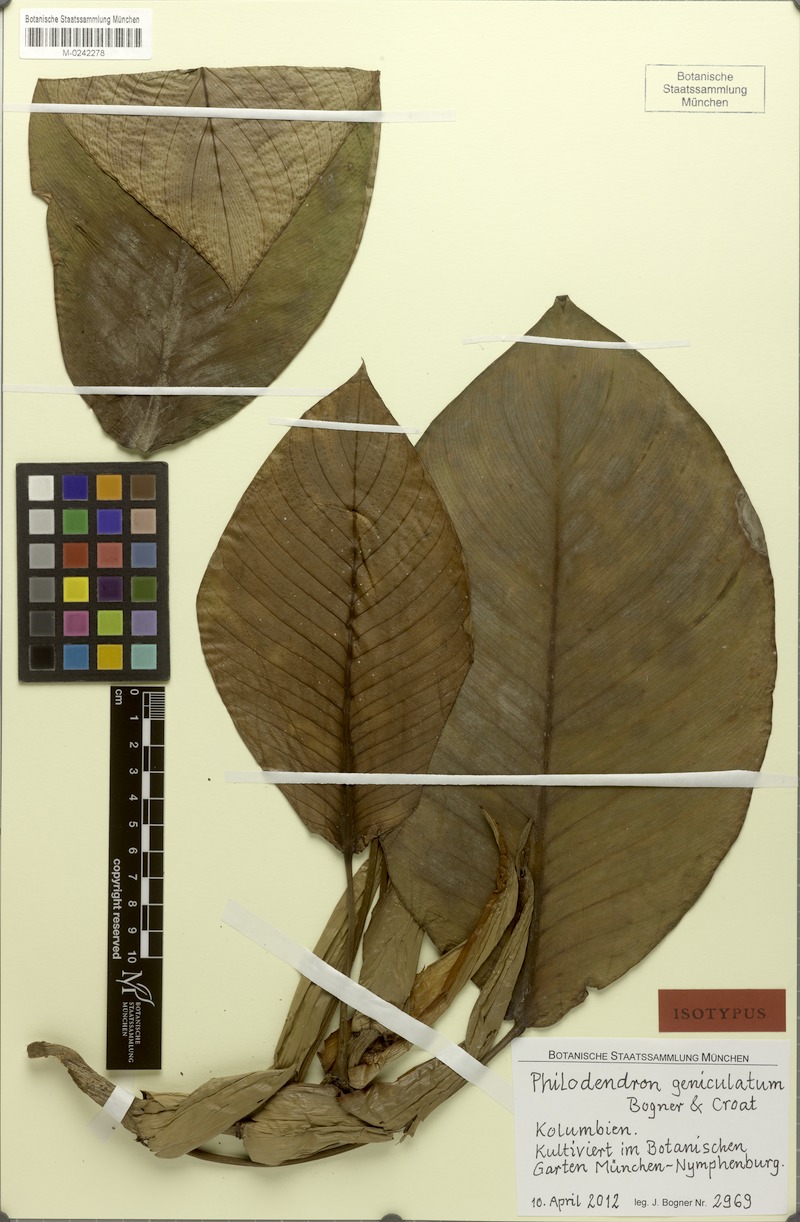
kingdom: Plantae
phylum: Tracheophyta
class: Liliopsida
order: Alismatales
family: Araceae
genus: Philodendron
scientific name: Philodendron geniculatum
